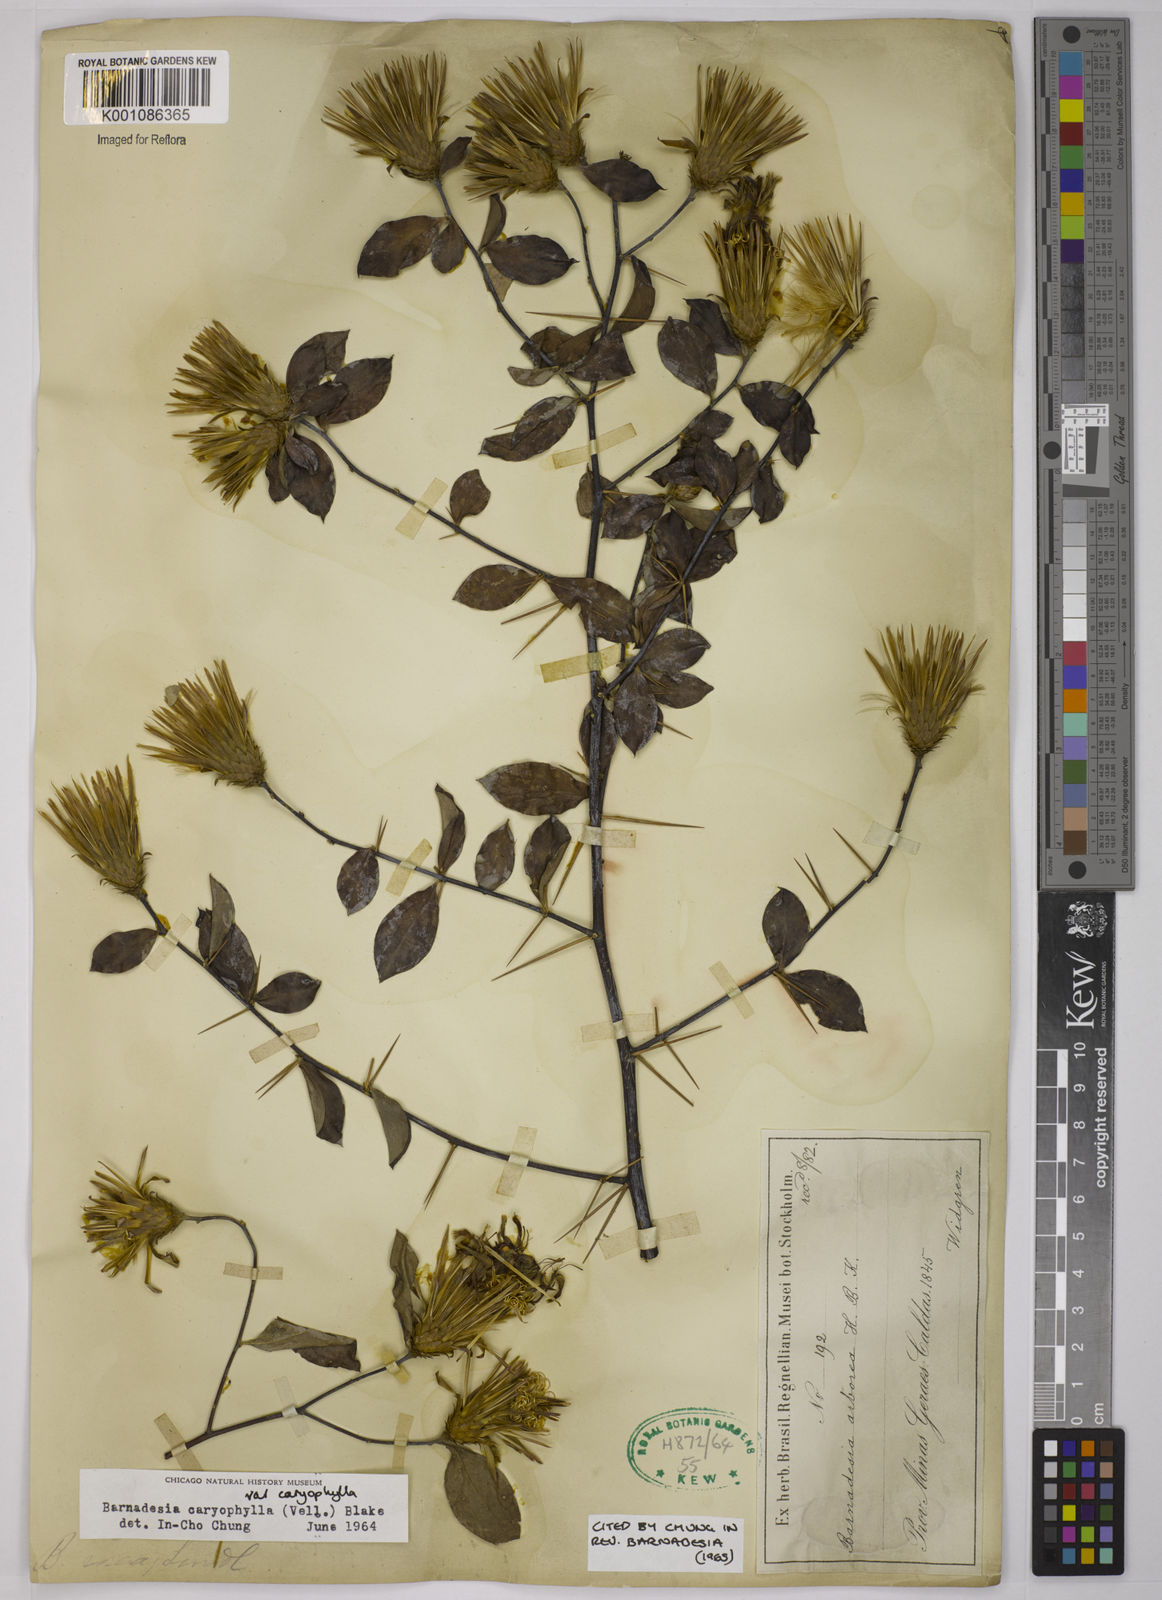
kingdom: Plantae
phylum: Tracheophyta
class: Magnoliopsida
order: Asterales
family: Asteraceae
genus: Barnadesia
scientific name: Barnadesia caryophylla
